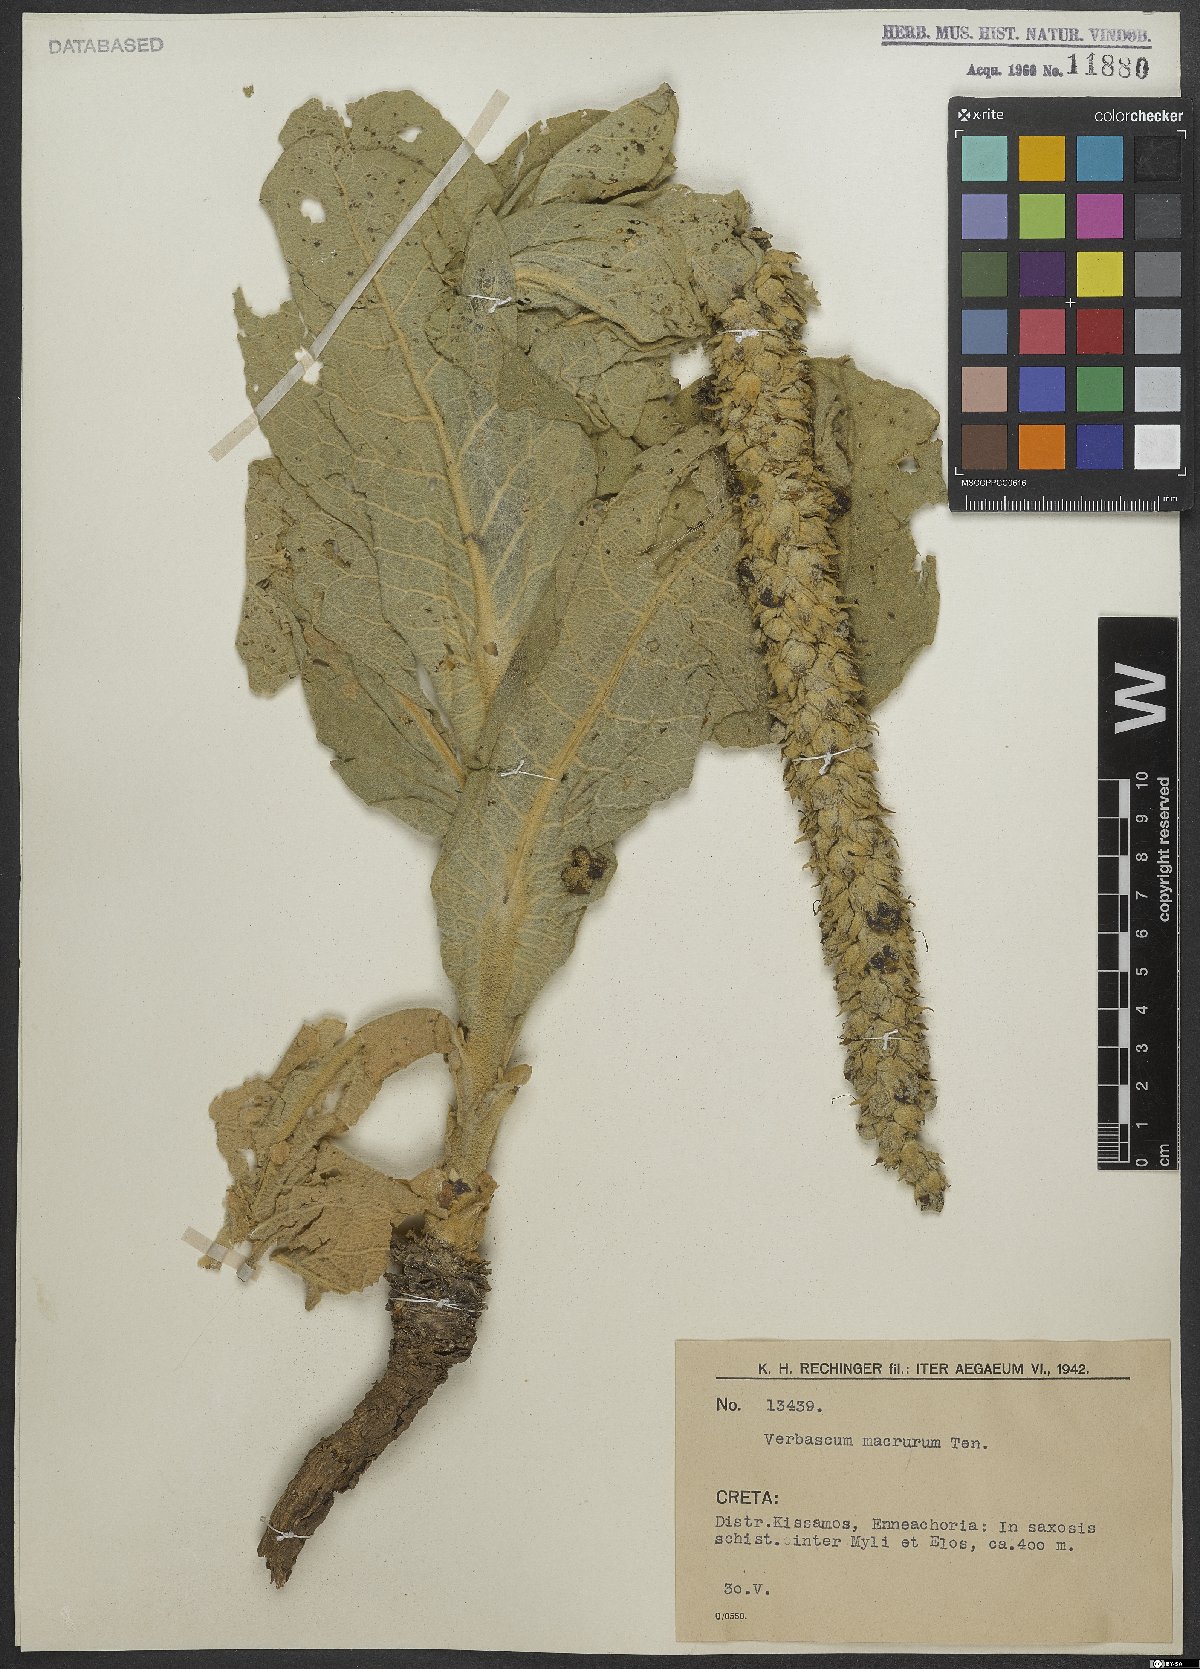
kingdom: Plantae
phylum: Tracheophyta
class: Magnoliopsida
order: Lamiales
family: Scrophulariaceae
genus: Verbascum
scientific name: Verbascum macrurum
